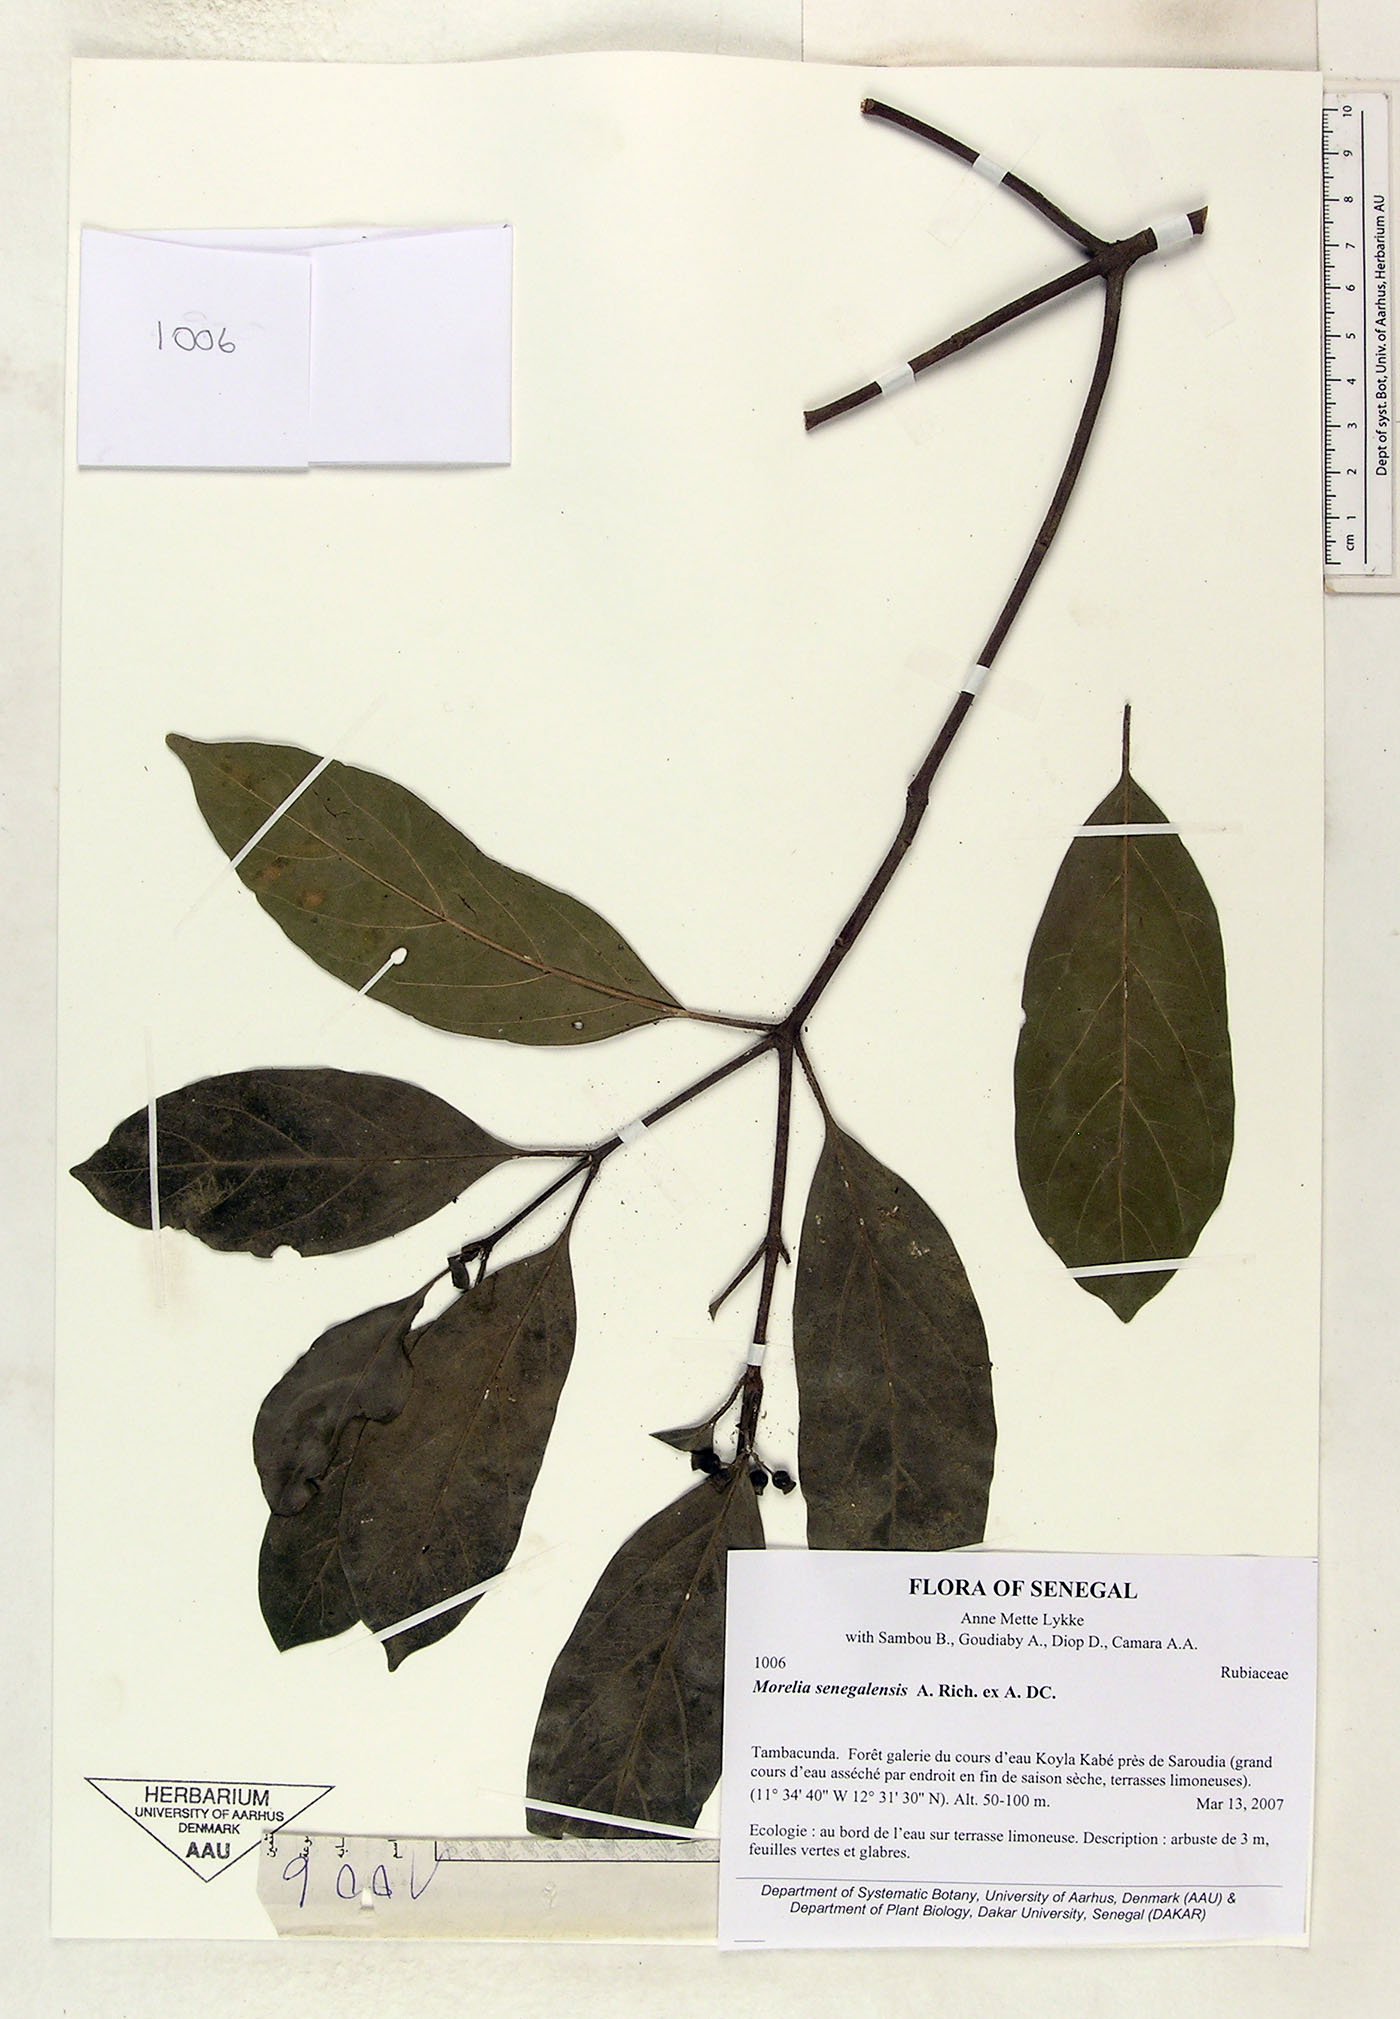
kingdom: Plantae
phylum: Tracheophyta
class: Magnoliopsida
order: Gentianales
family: Rubiaceae
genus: Morelia
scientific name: Morelia senegalensis
